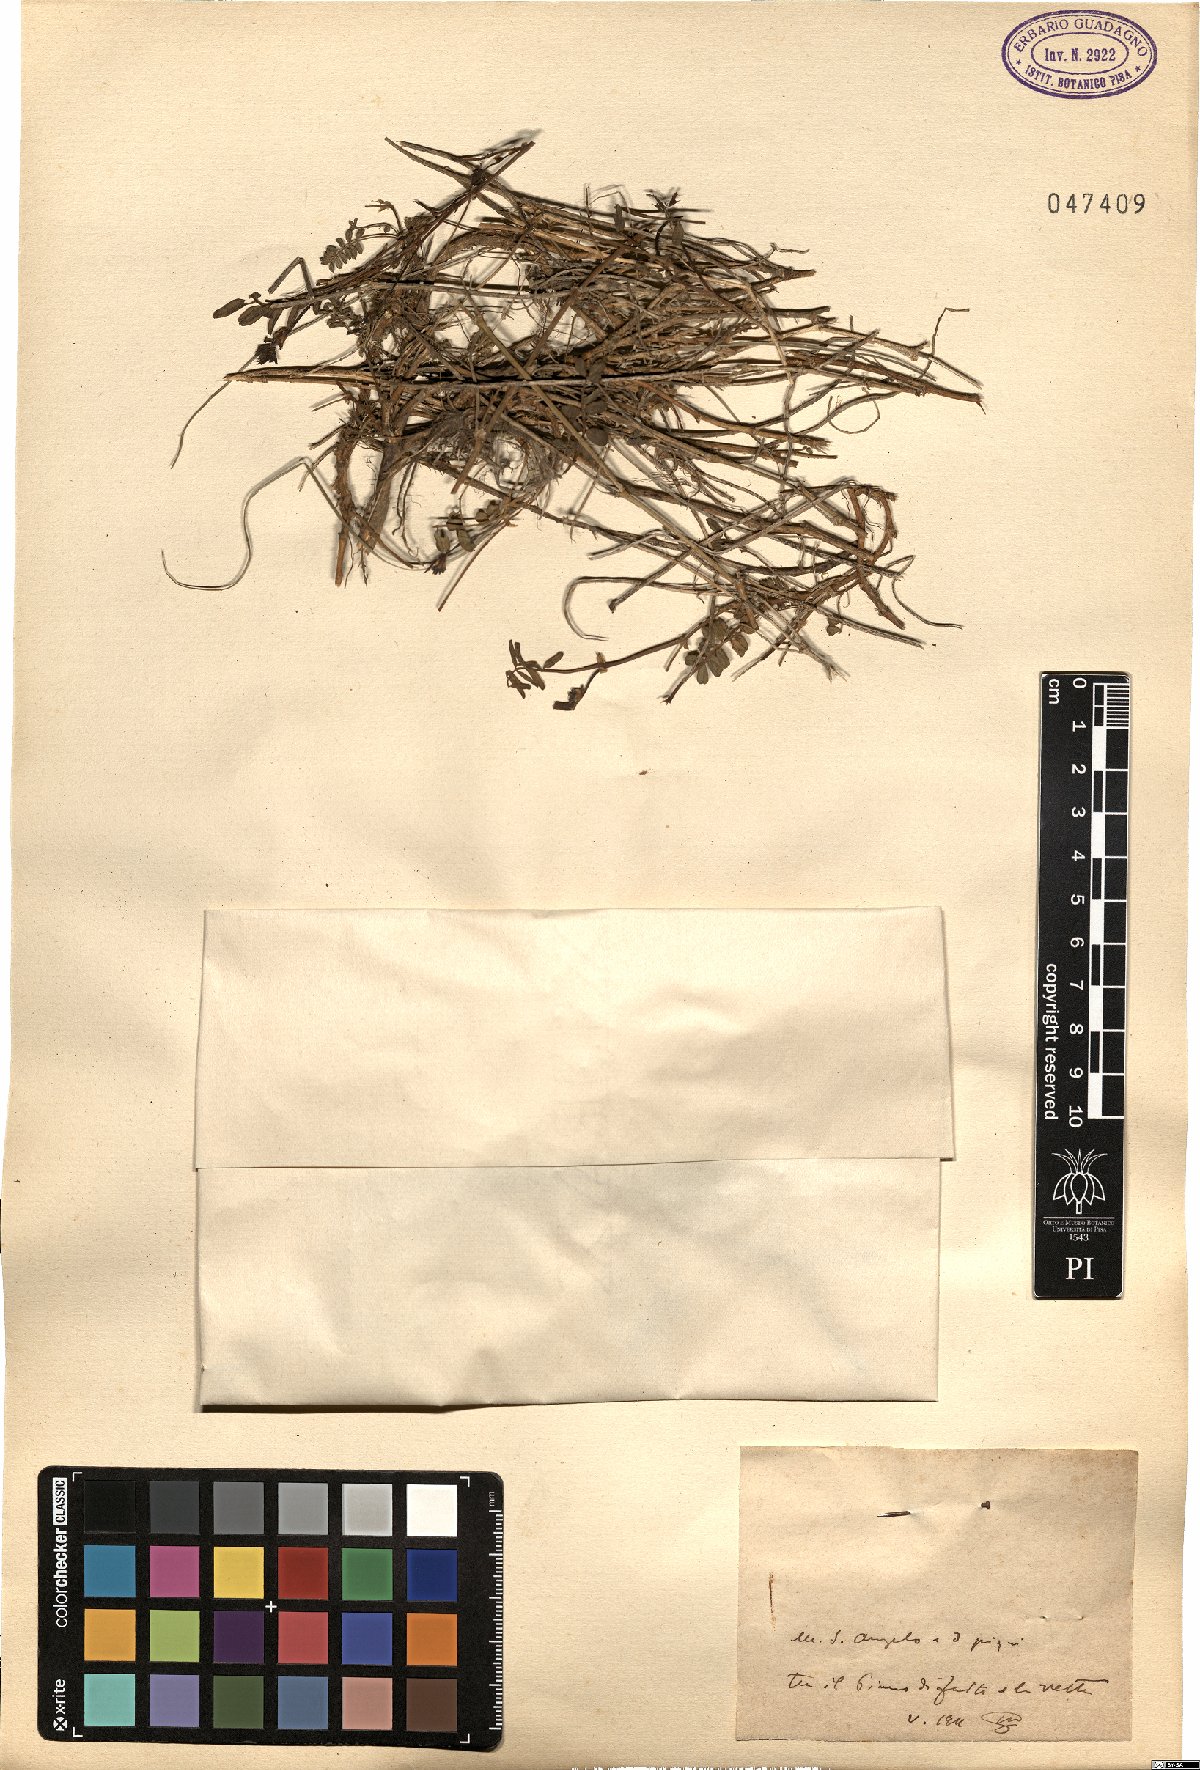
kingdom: Plantae
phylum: Tracheophyta
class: Magnoliopsida
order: Fabales
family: Fabaceae
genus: Hippocrepis
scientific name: Hippocrepis
